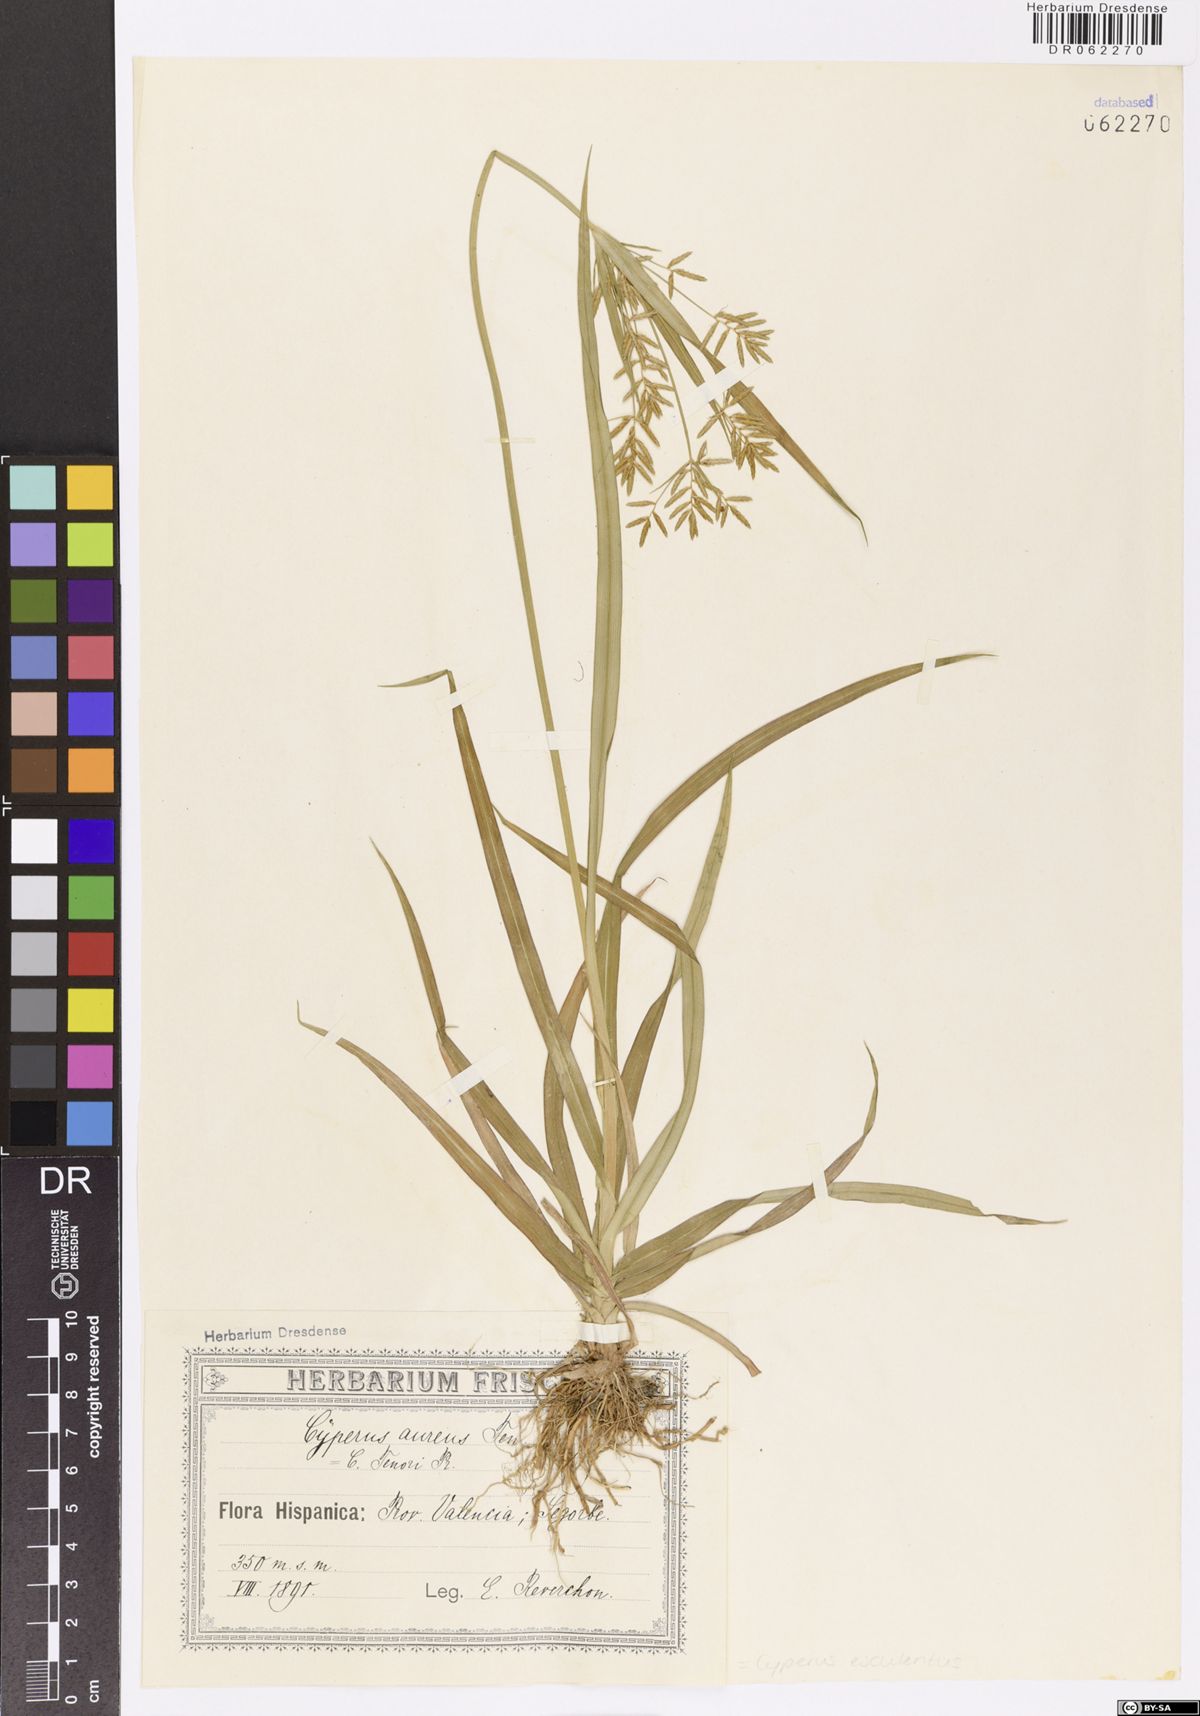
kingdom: Plantae
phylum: Tracheophyta
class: Liliopsida
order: Poales
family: Cyperaceae
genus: Cyperus
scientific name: Cyperus esculentus
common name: Yellow nutsedge
